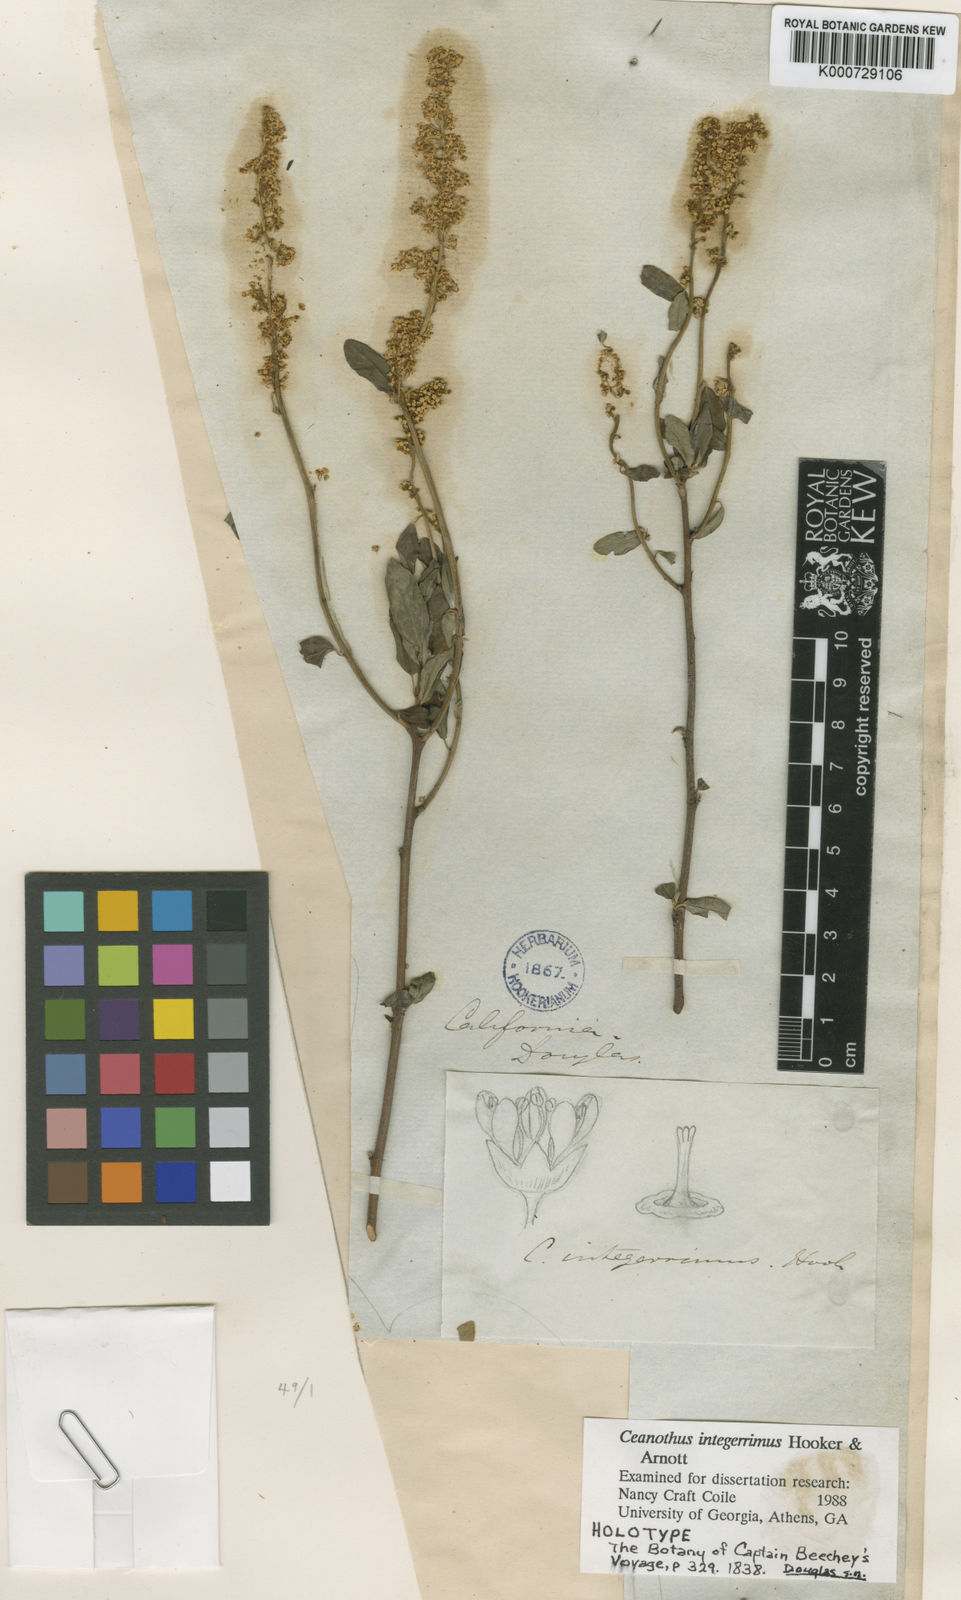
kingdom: Plantae
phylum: Tracheophyta
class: Magnoliopsida
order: Rosales
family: Rhamnaceae
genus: Ceanothus
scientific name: Ceanothus integerrimus
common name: Deerbrush ceanothus
